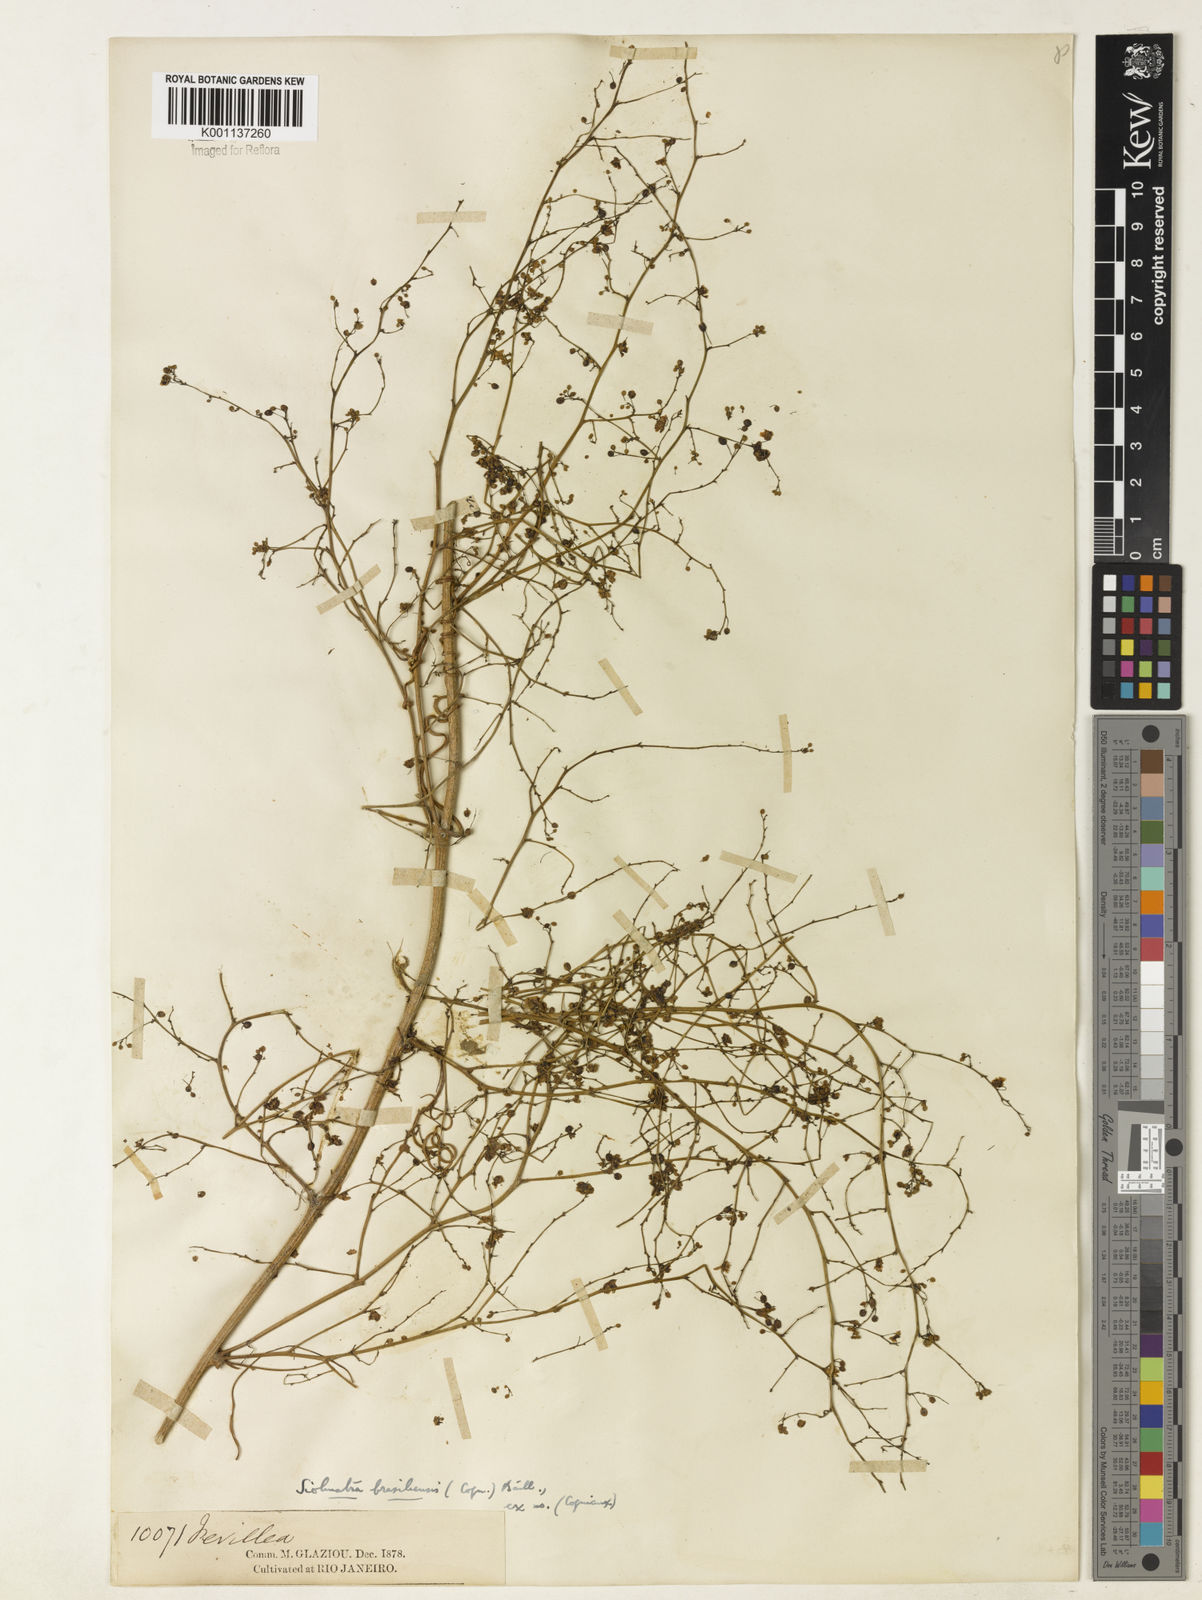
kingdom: Plantae
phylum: Tracheophyta
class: Magnoliopsida
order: Cucurbitales
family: Cucurbitaceae
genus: Siolmatra
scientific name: Siolmatra brasiliensis
